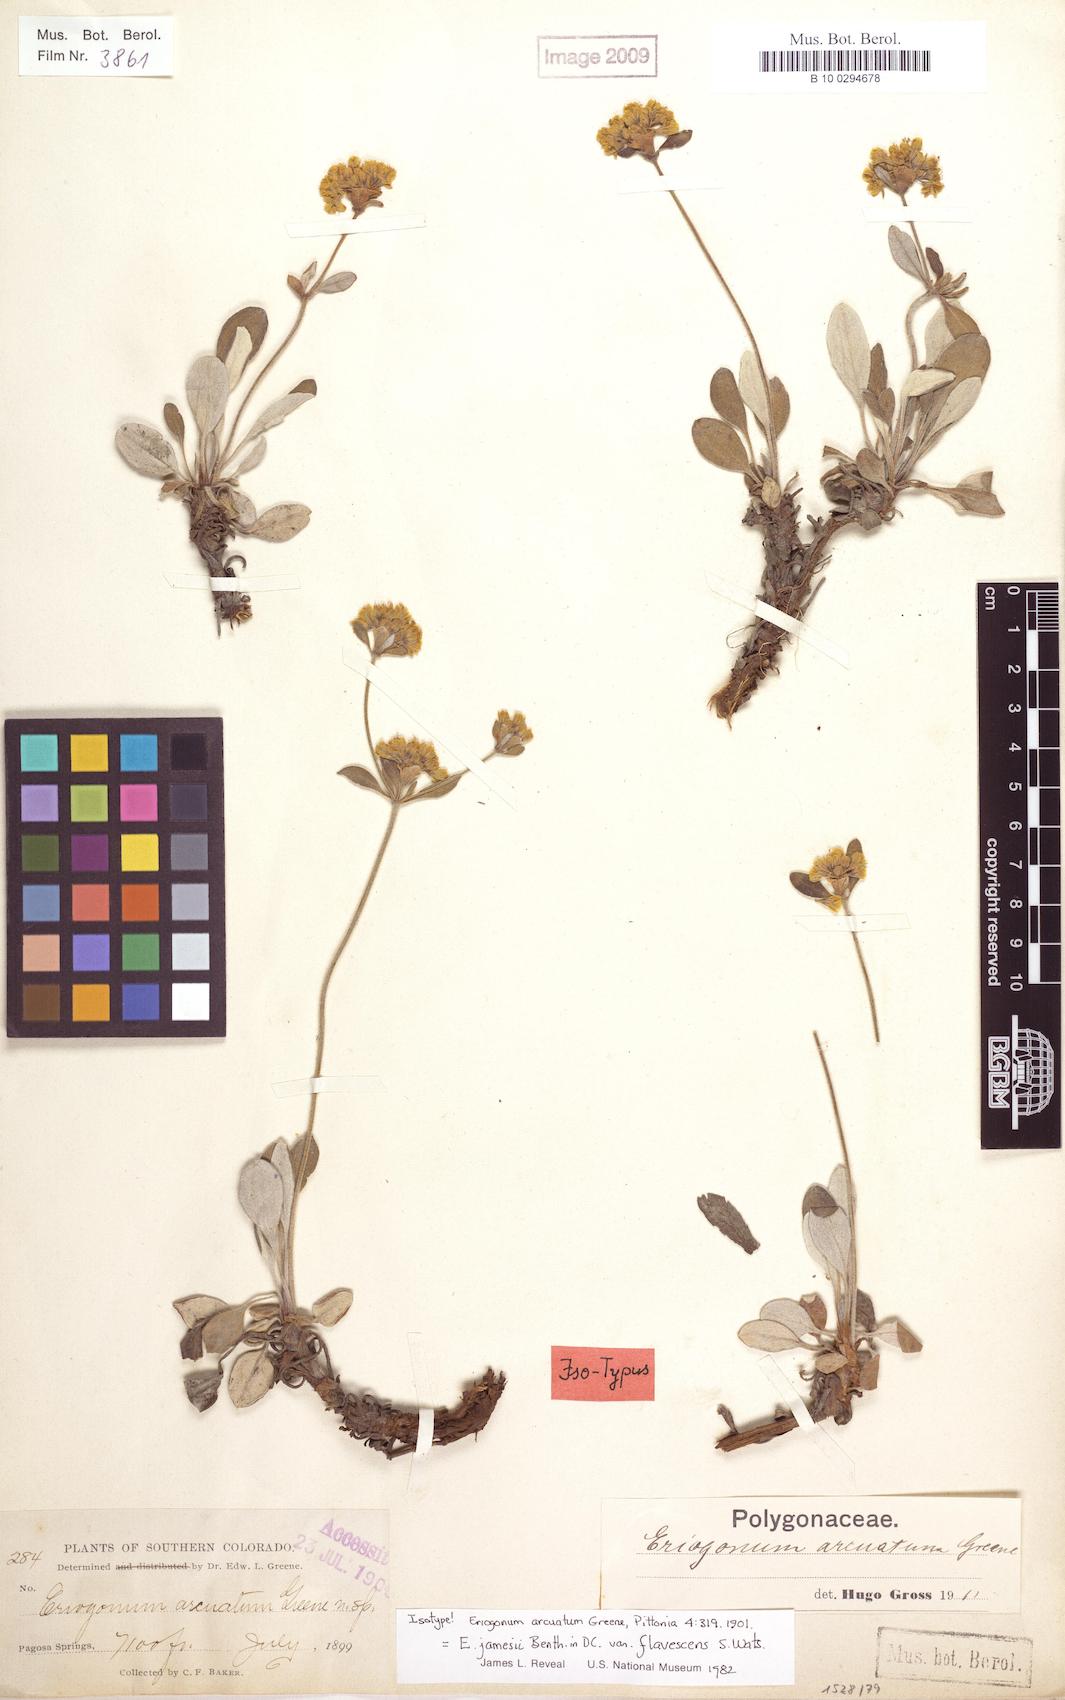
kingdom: Plantae
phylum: Tracheophyta
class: Magnoliopsida
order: Caryophyllales
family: Polygonaceae
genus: Eriogonum
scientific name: Eriogonum arcuatum
